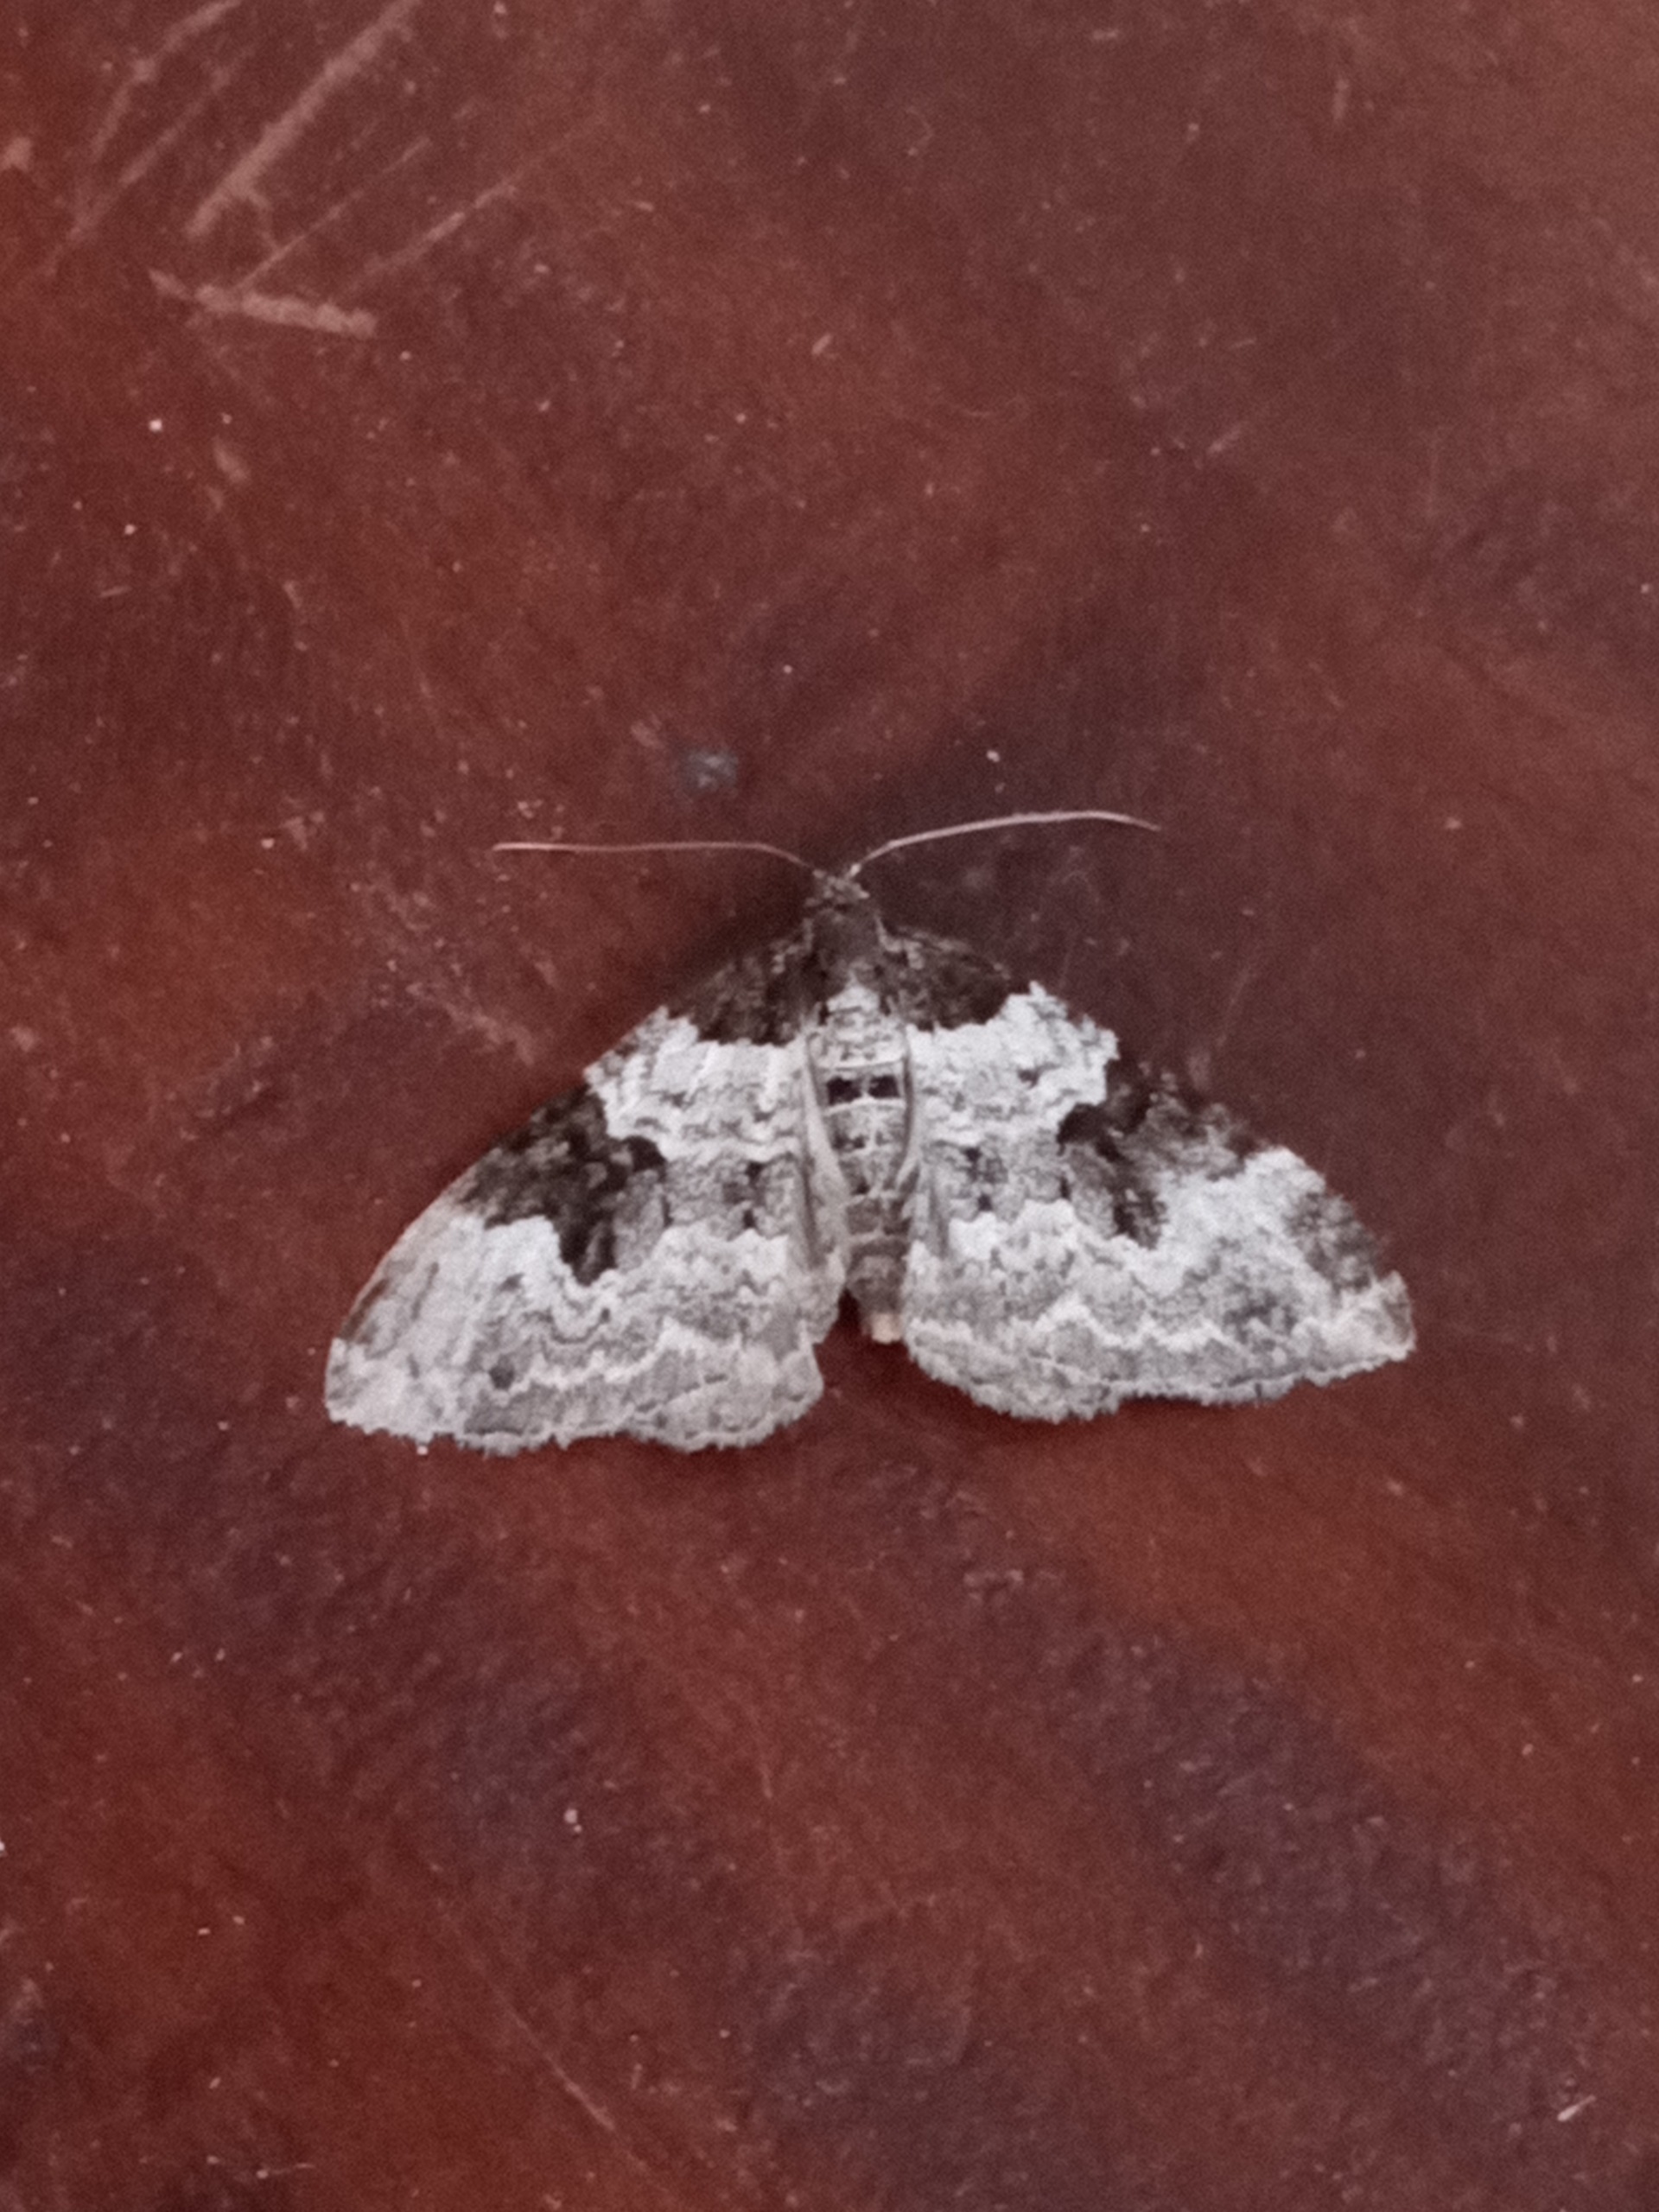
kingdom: Animalia
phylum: Arthropoda
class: Insecta
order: Lepidoptera
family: Geometridae
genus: Xanthorhoe
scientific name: Xanthorhoe fluctuata
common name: Sortbæltet bladmåler
